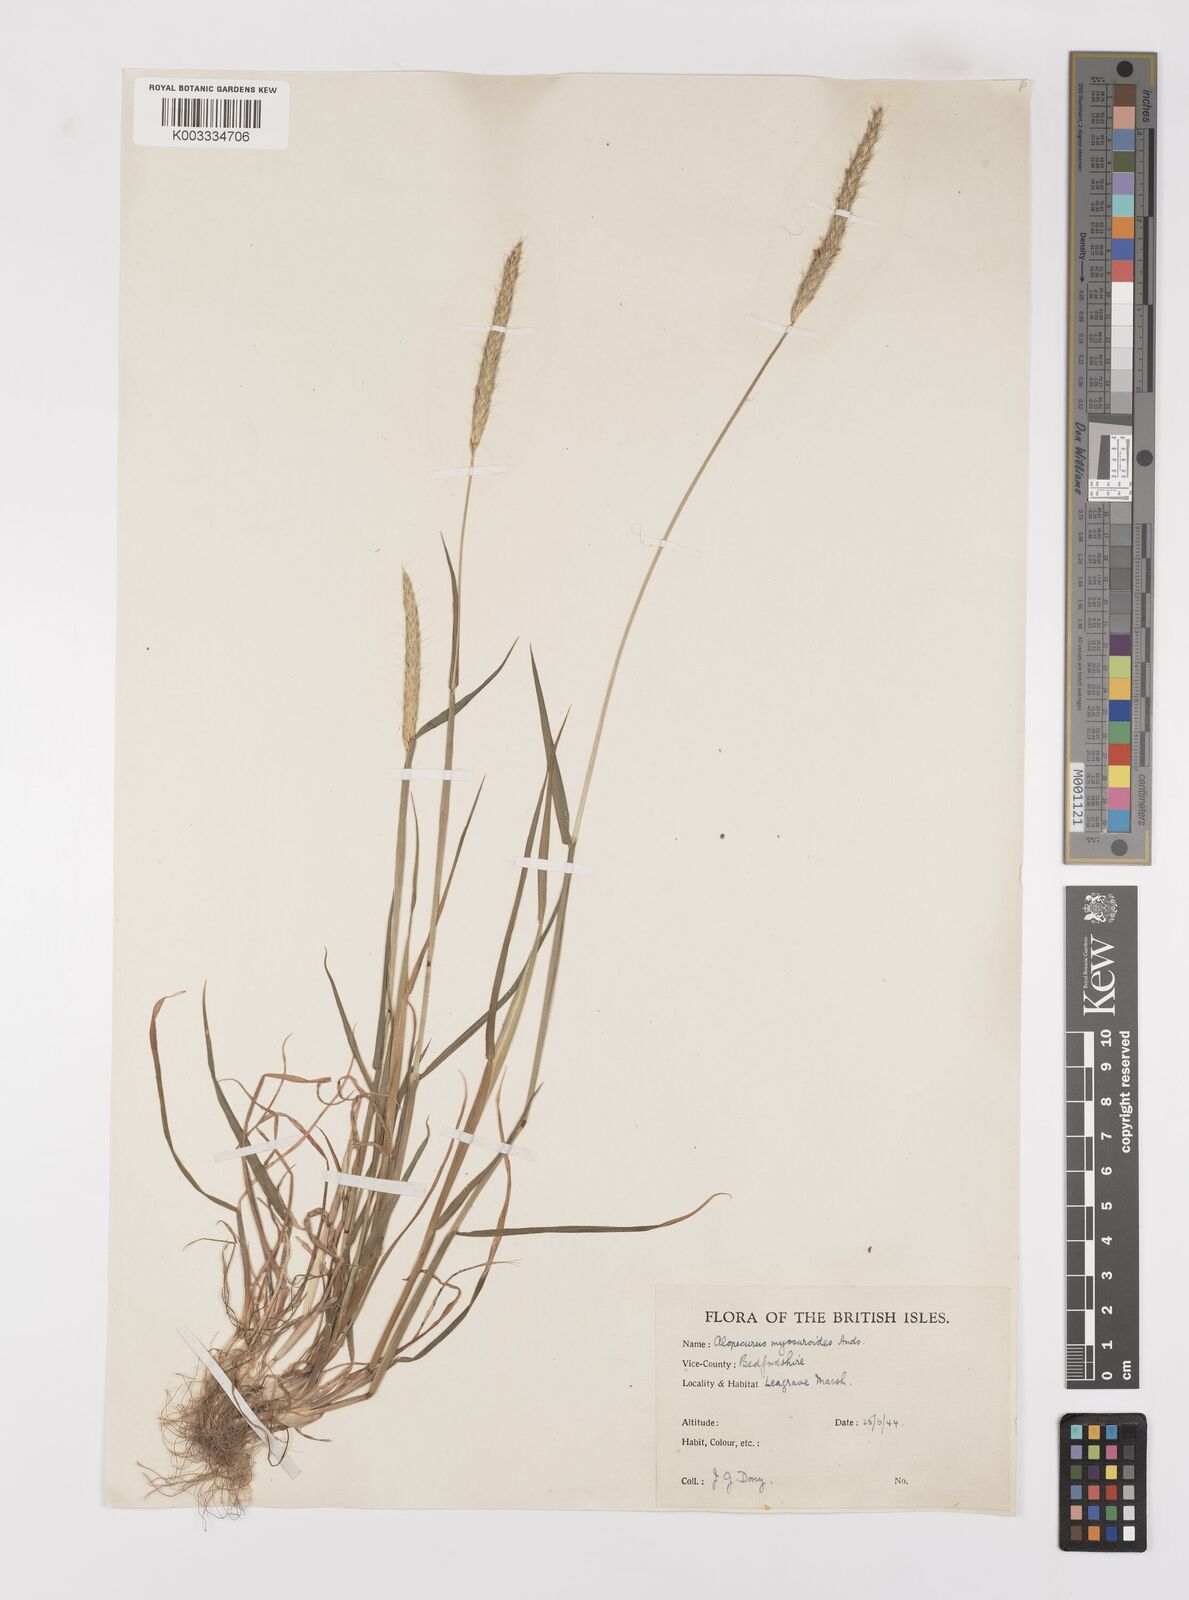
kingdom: Plantae
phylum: Tracheophyta
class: Liliopsida
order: Poales
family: Poaceae
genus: Alopecurus
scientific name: Alopecurus myosuroides
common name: Black-grass
